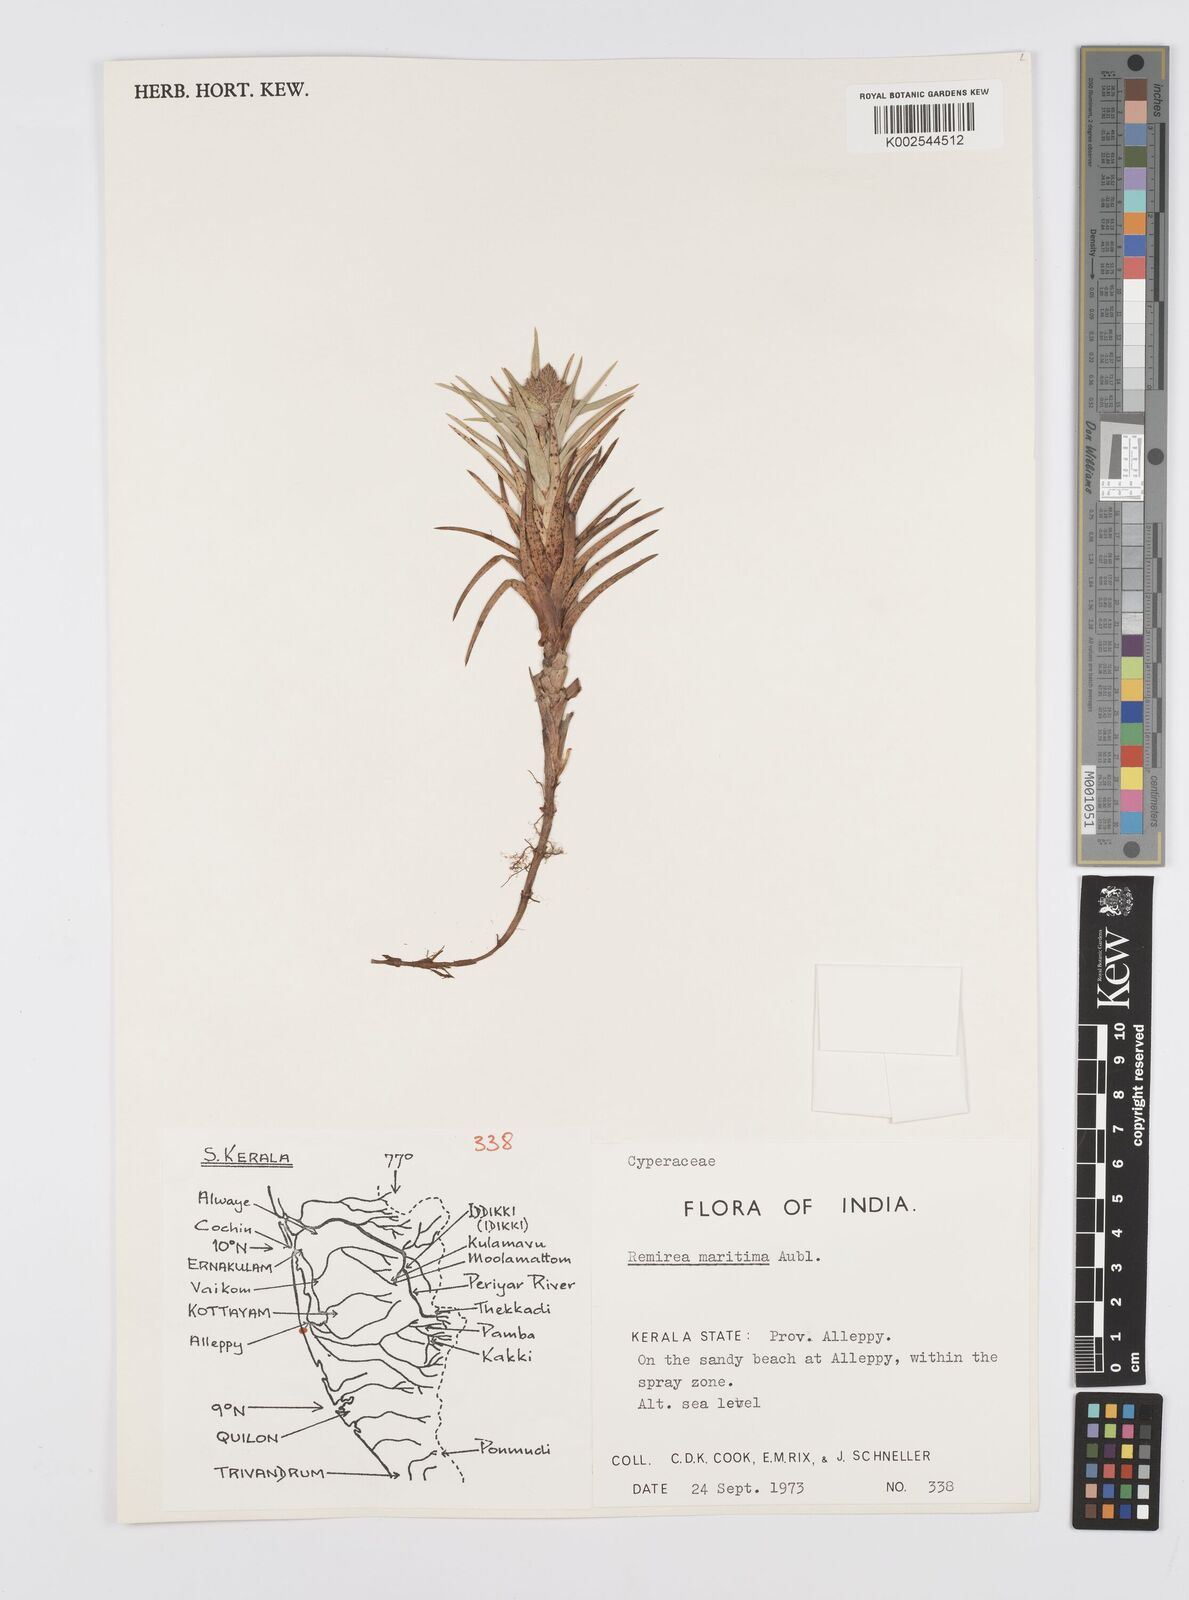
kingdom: Plantae
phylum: Tracheophyta
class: Liliopsida
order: Poales
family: Cyperaceae
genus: Cyperus
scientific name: Cyperus
